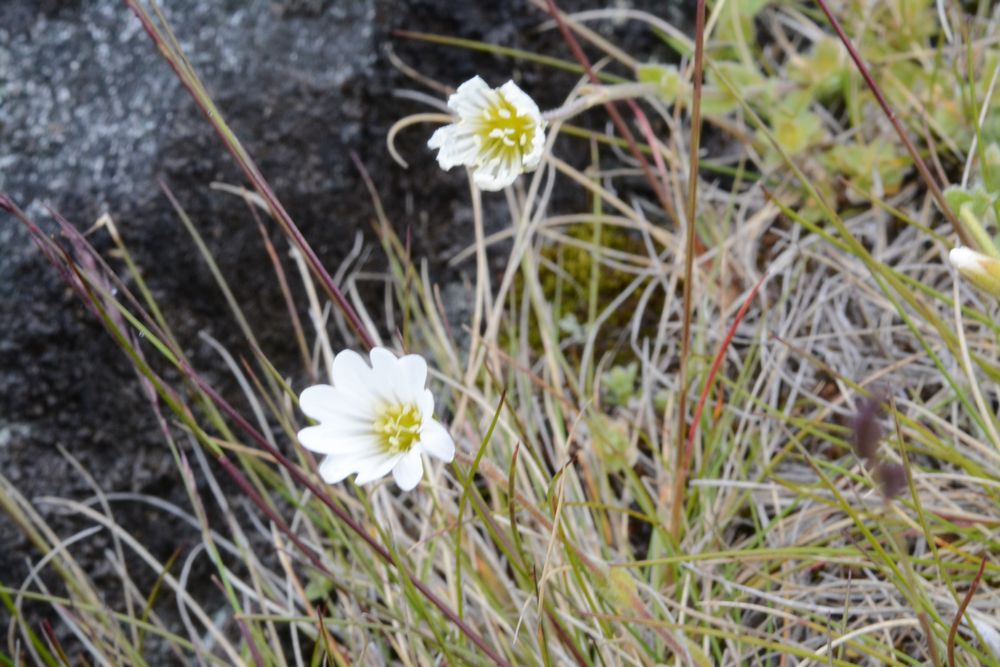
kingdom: Plantae
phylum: Tracheophyta
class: Magnoliopsida
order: Caryophyllales
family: Caryophyllaceae
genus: Cerastium
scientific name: Cerastium alpinum
